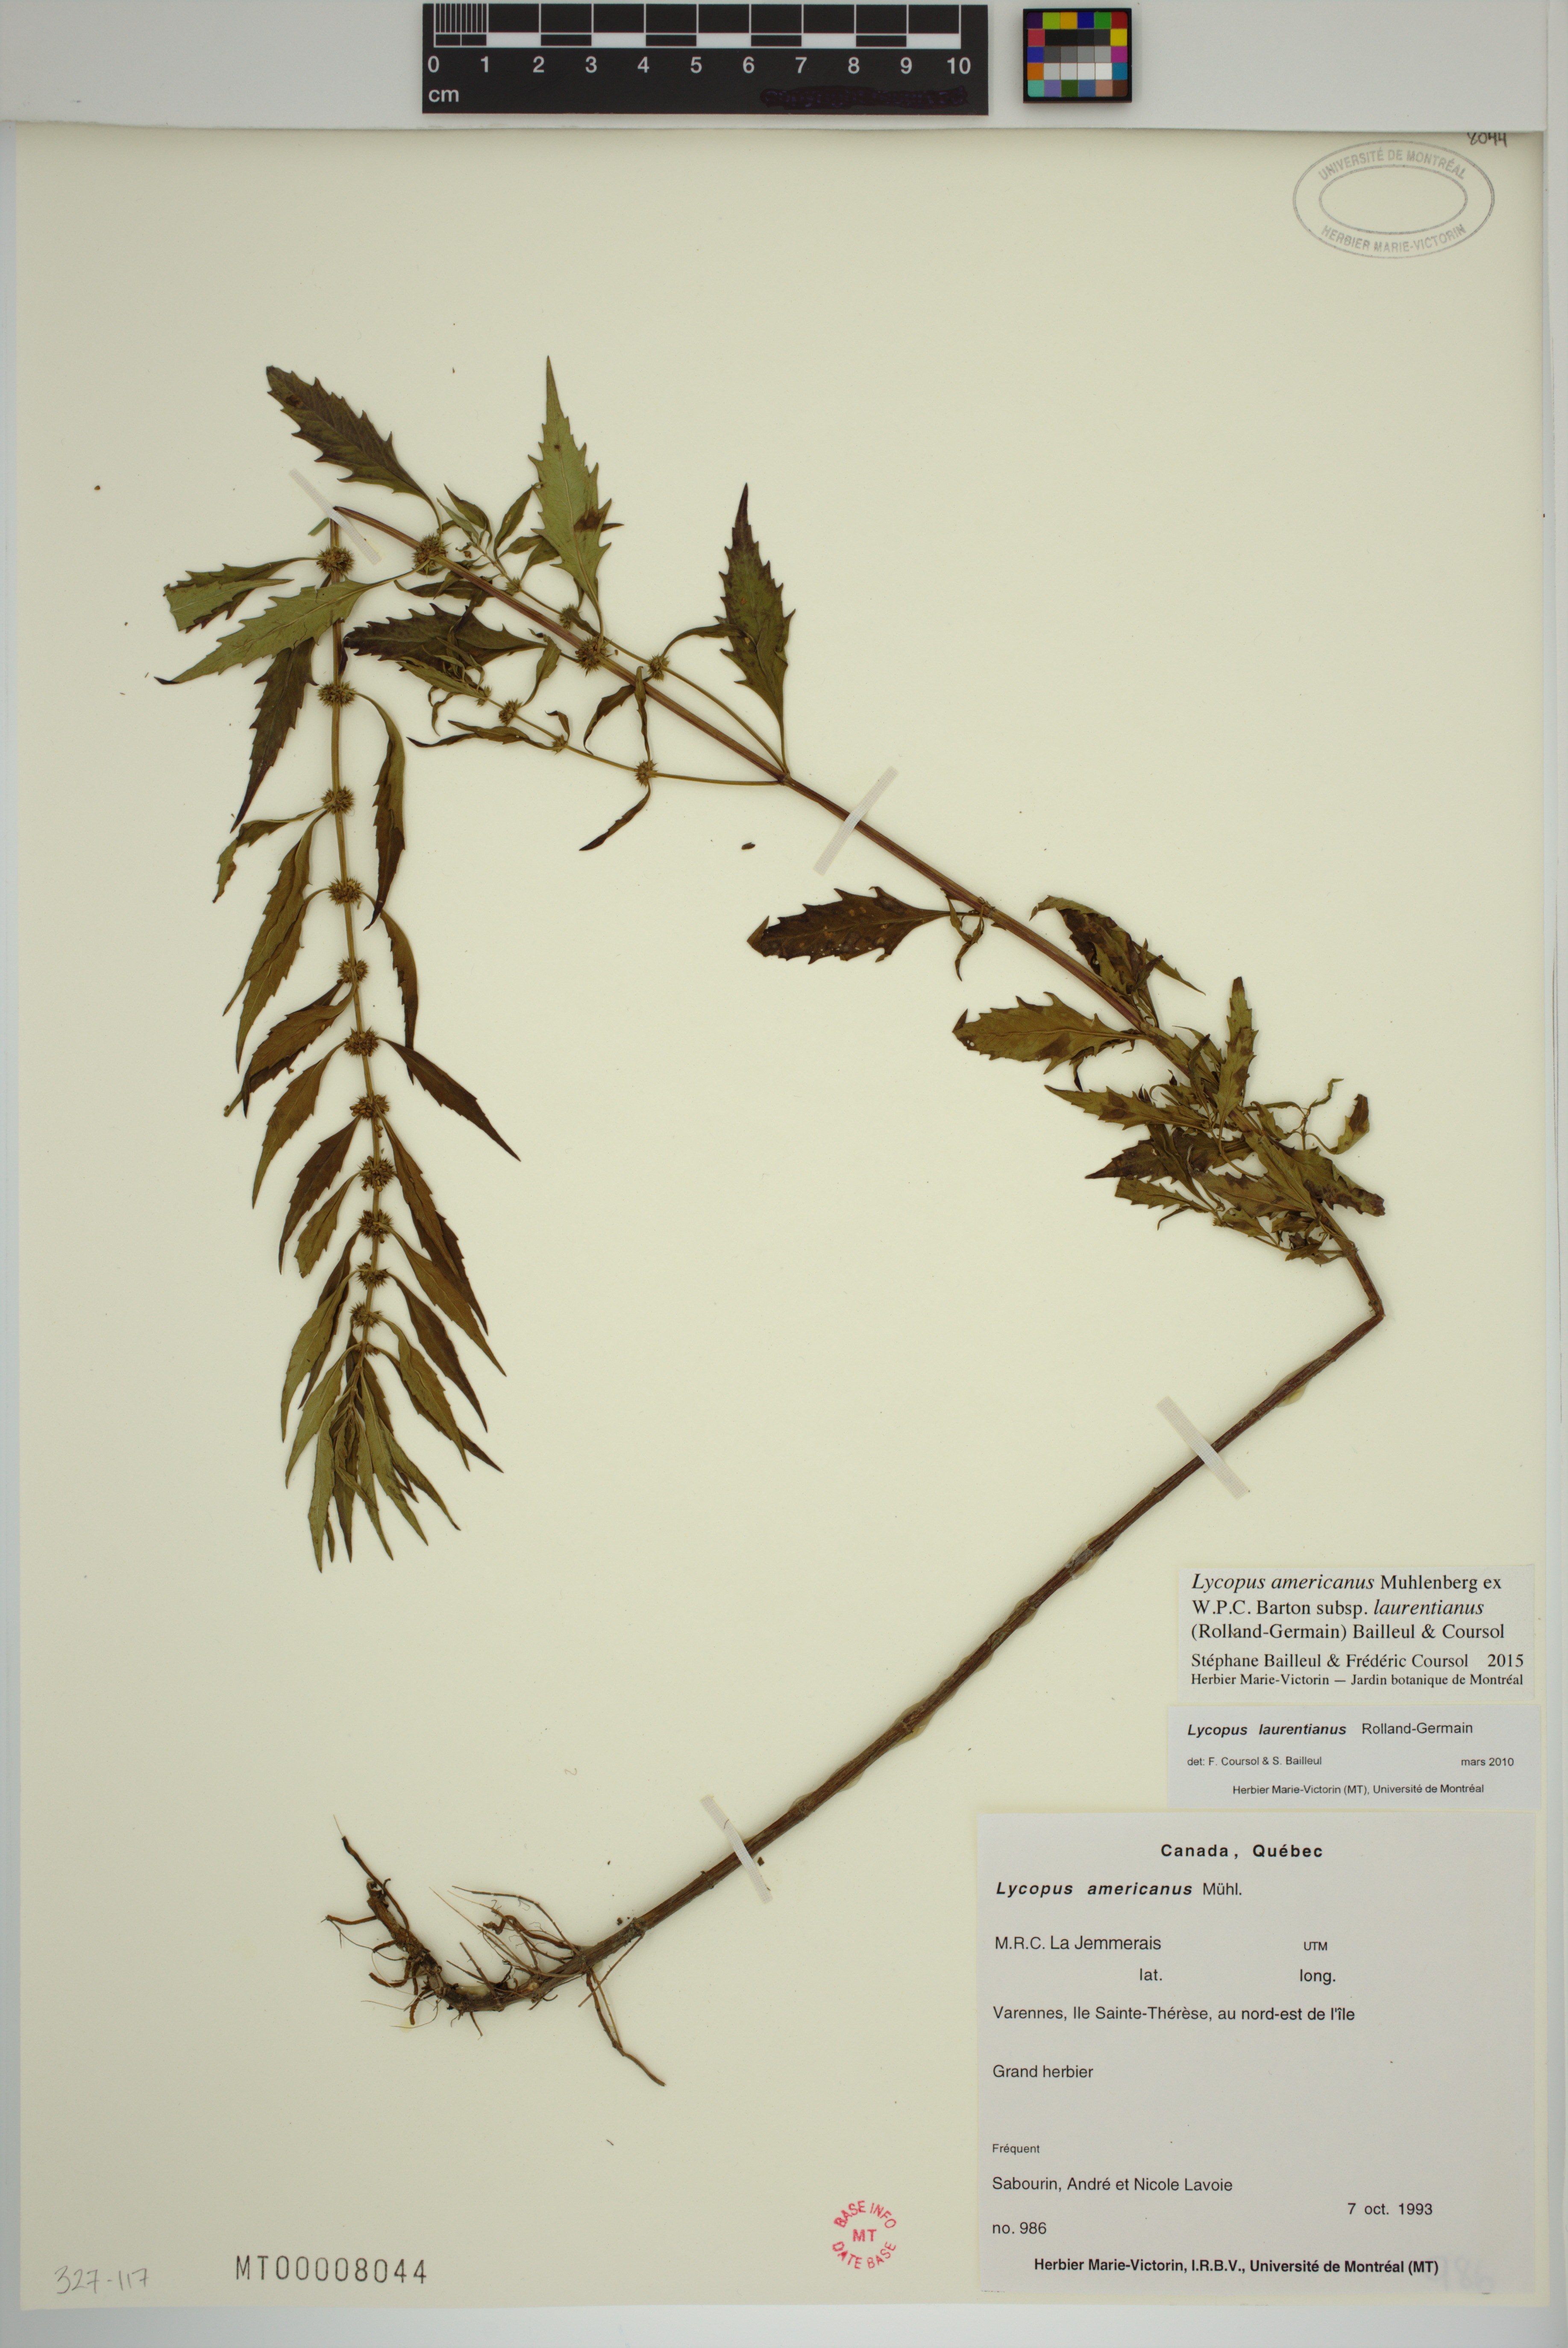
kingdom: Plantae
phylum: Tracheophyta
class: Magnoliopsida
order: Lamiales
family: Lamiaceae
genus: Lycopus
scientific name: Lycopus americanus
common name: American bugleweed
